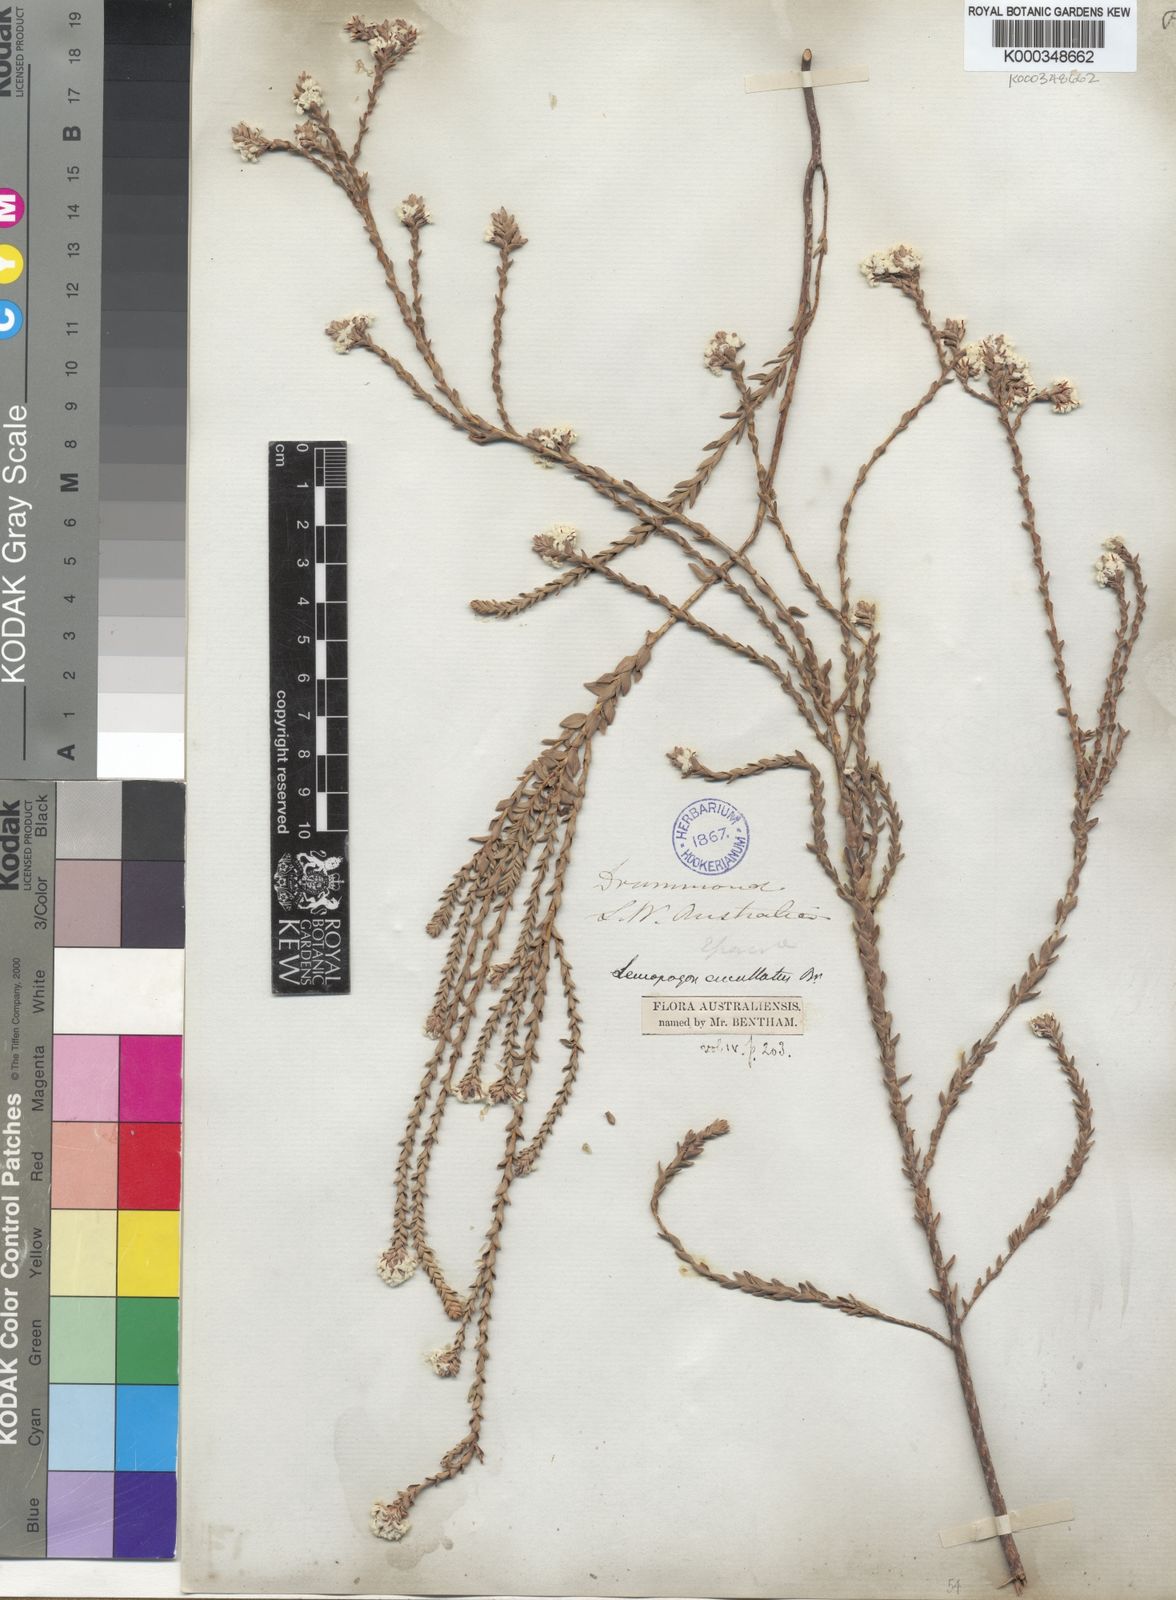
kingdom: Plantae
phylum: Tracheophyta
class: Magnoliopsida
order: Ericales
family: Ericaceae
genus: Leucopogon
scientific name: Leucopogon cucullatus
